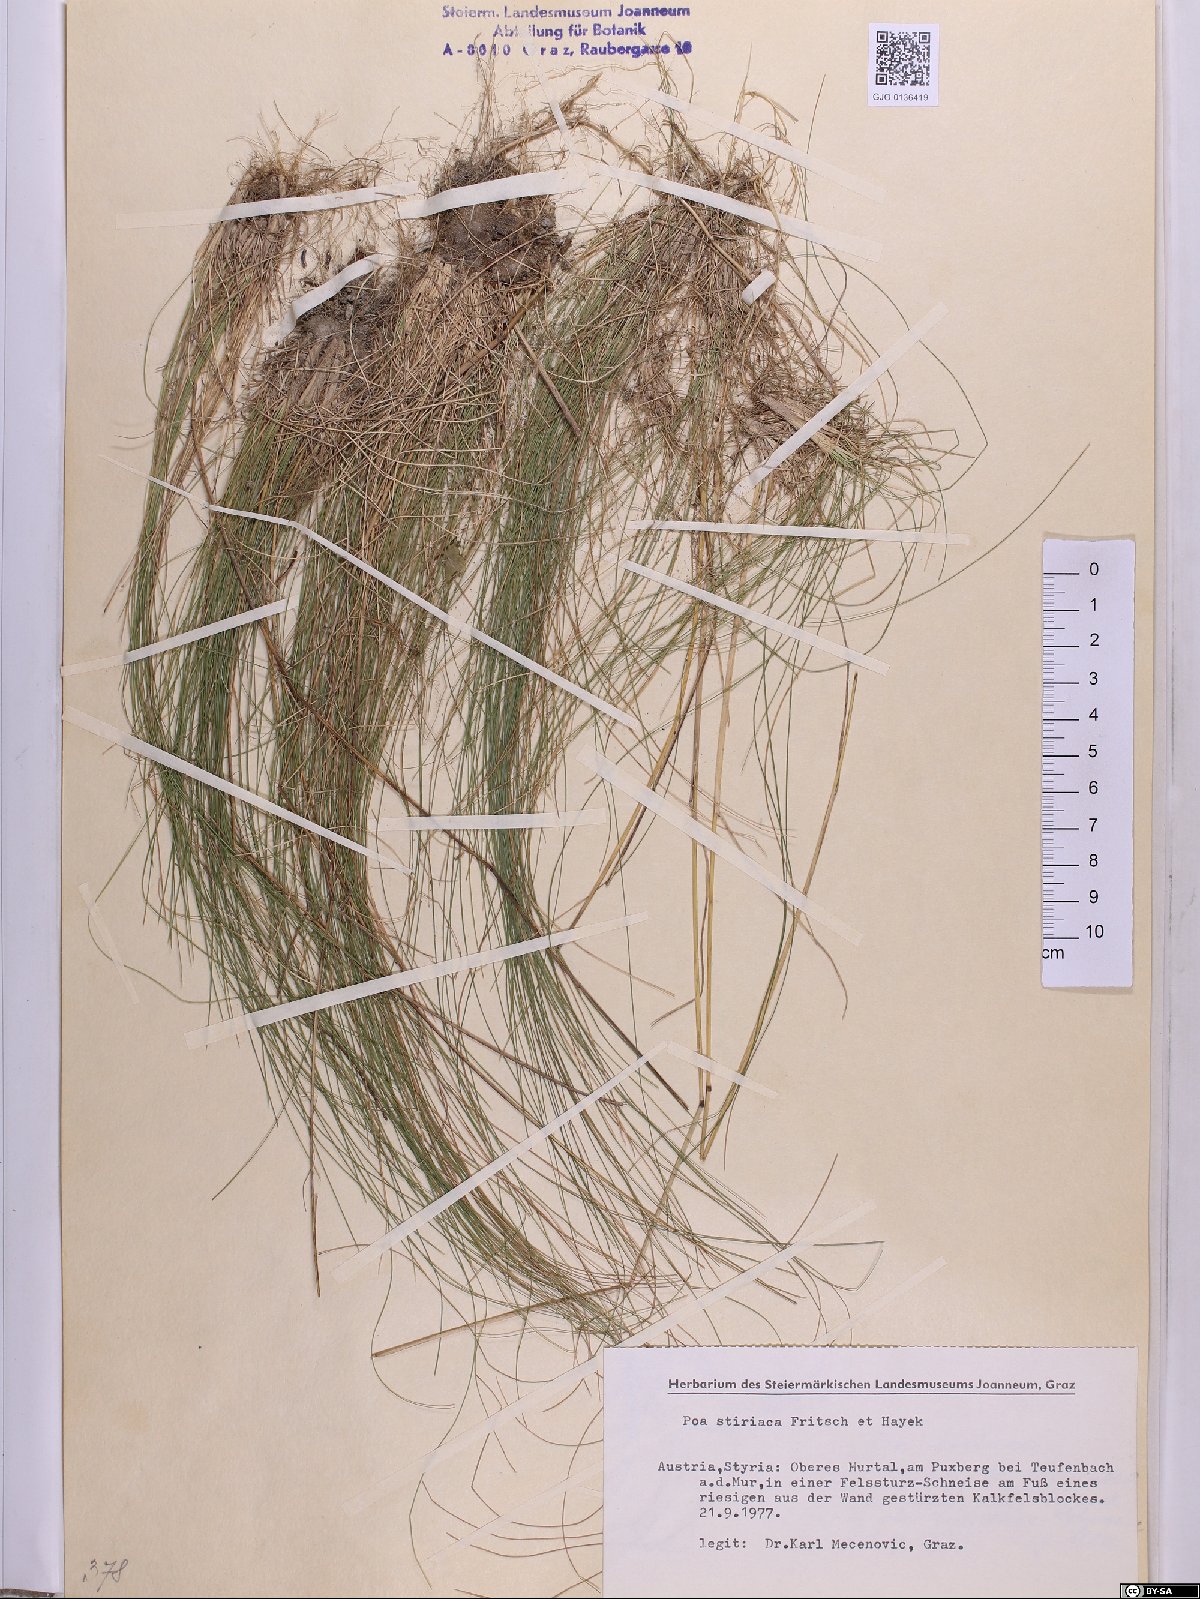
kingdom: Plantae
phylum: Tracheophyta
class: Liliopsida
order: Poales
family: Poaceae
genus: Poa
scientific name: Poa stiriaca
